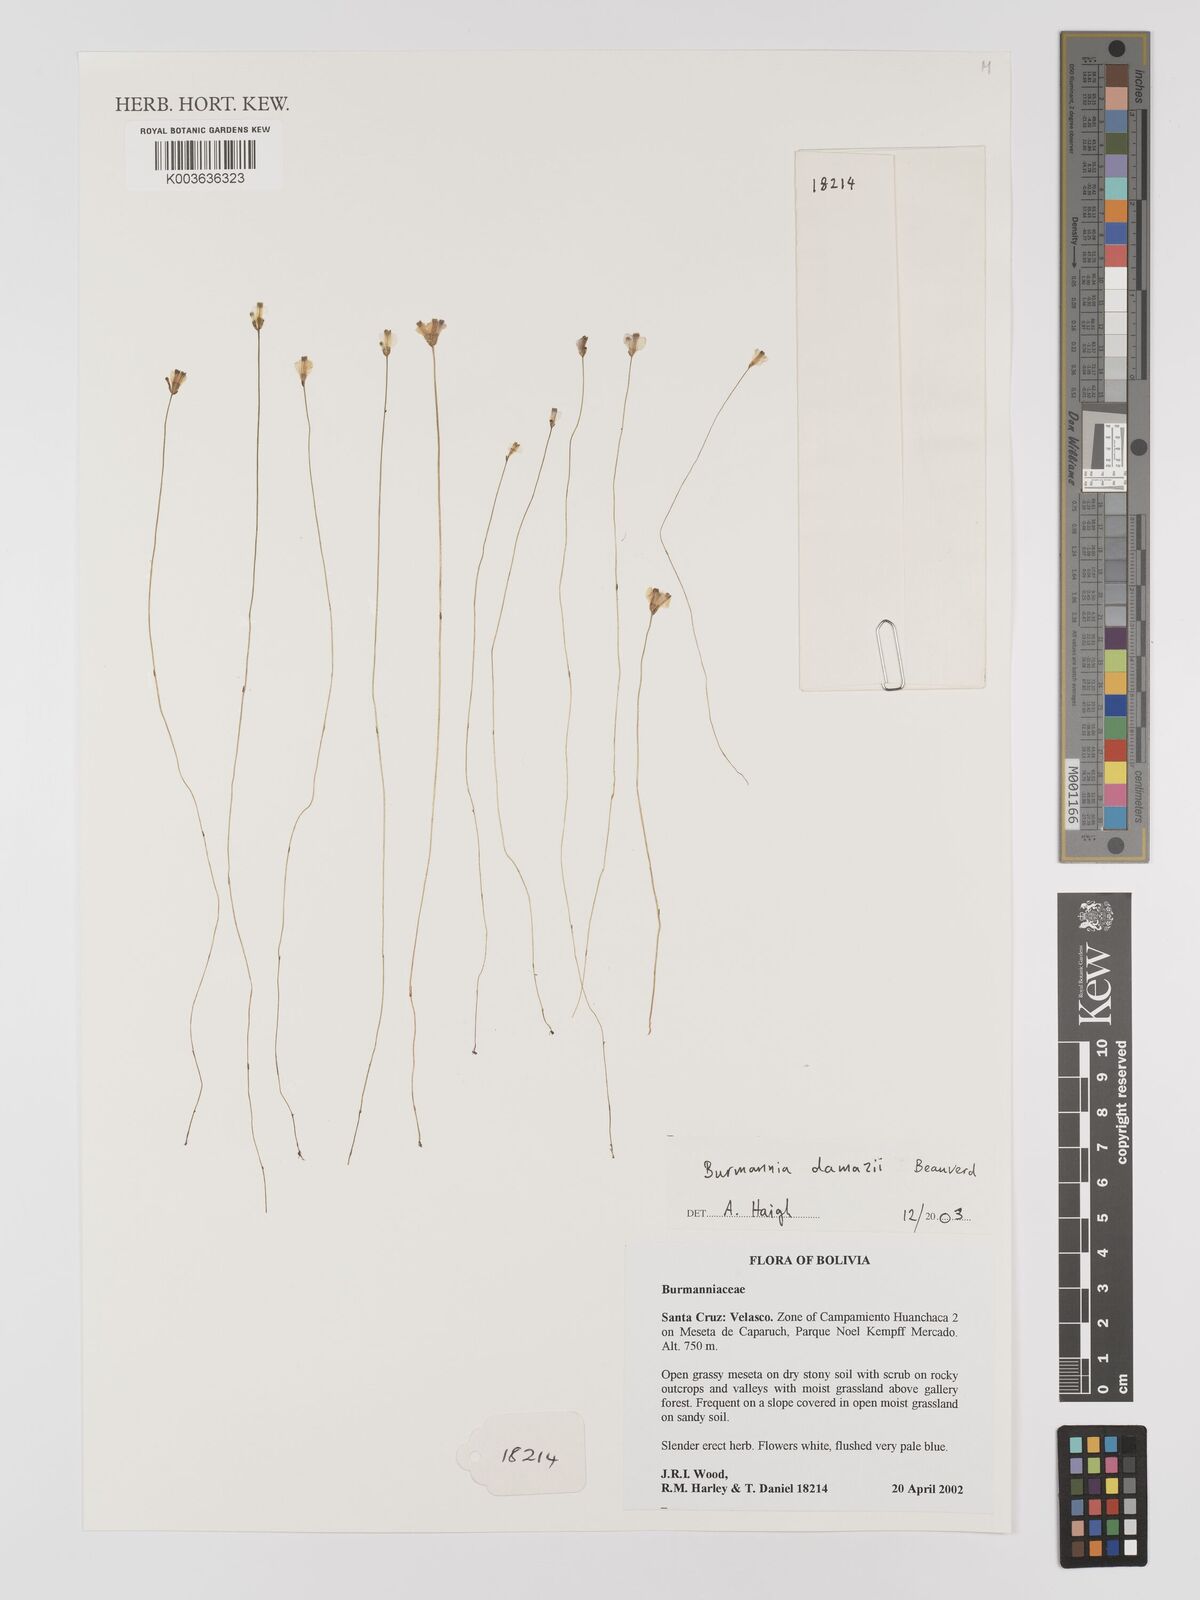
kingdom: Plantae
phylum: Tracheophyta
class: Liliopsida
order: Dioscoreales
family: Burmanniaceae
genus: Burmannia
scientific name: Burmannia damazii
